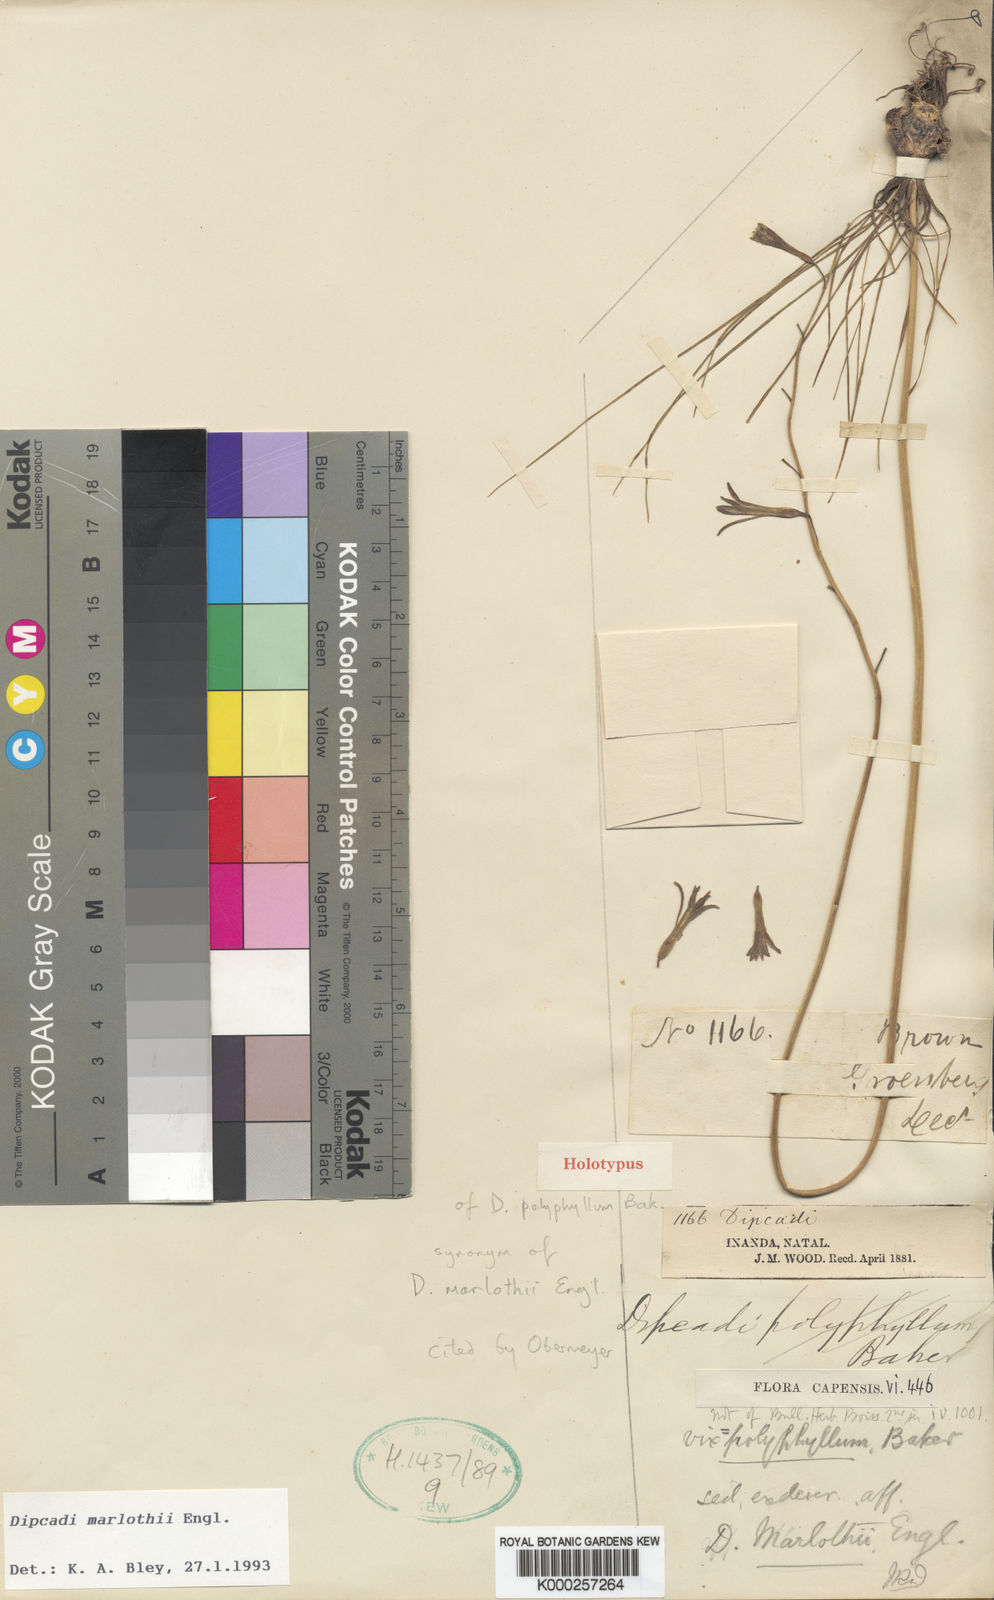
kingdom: Plantae
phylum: Tracheophyta
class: Liliopsida
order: Asparagales
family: Asparagaceae
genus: Dipcadi
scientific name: Dipcadi marlothii
